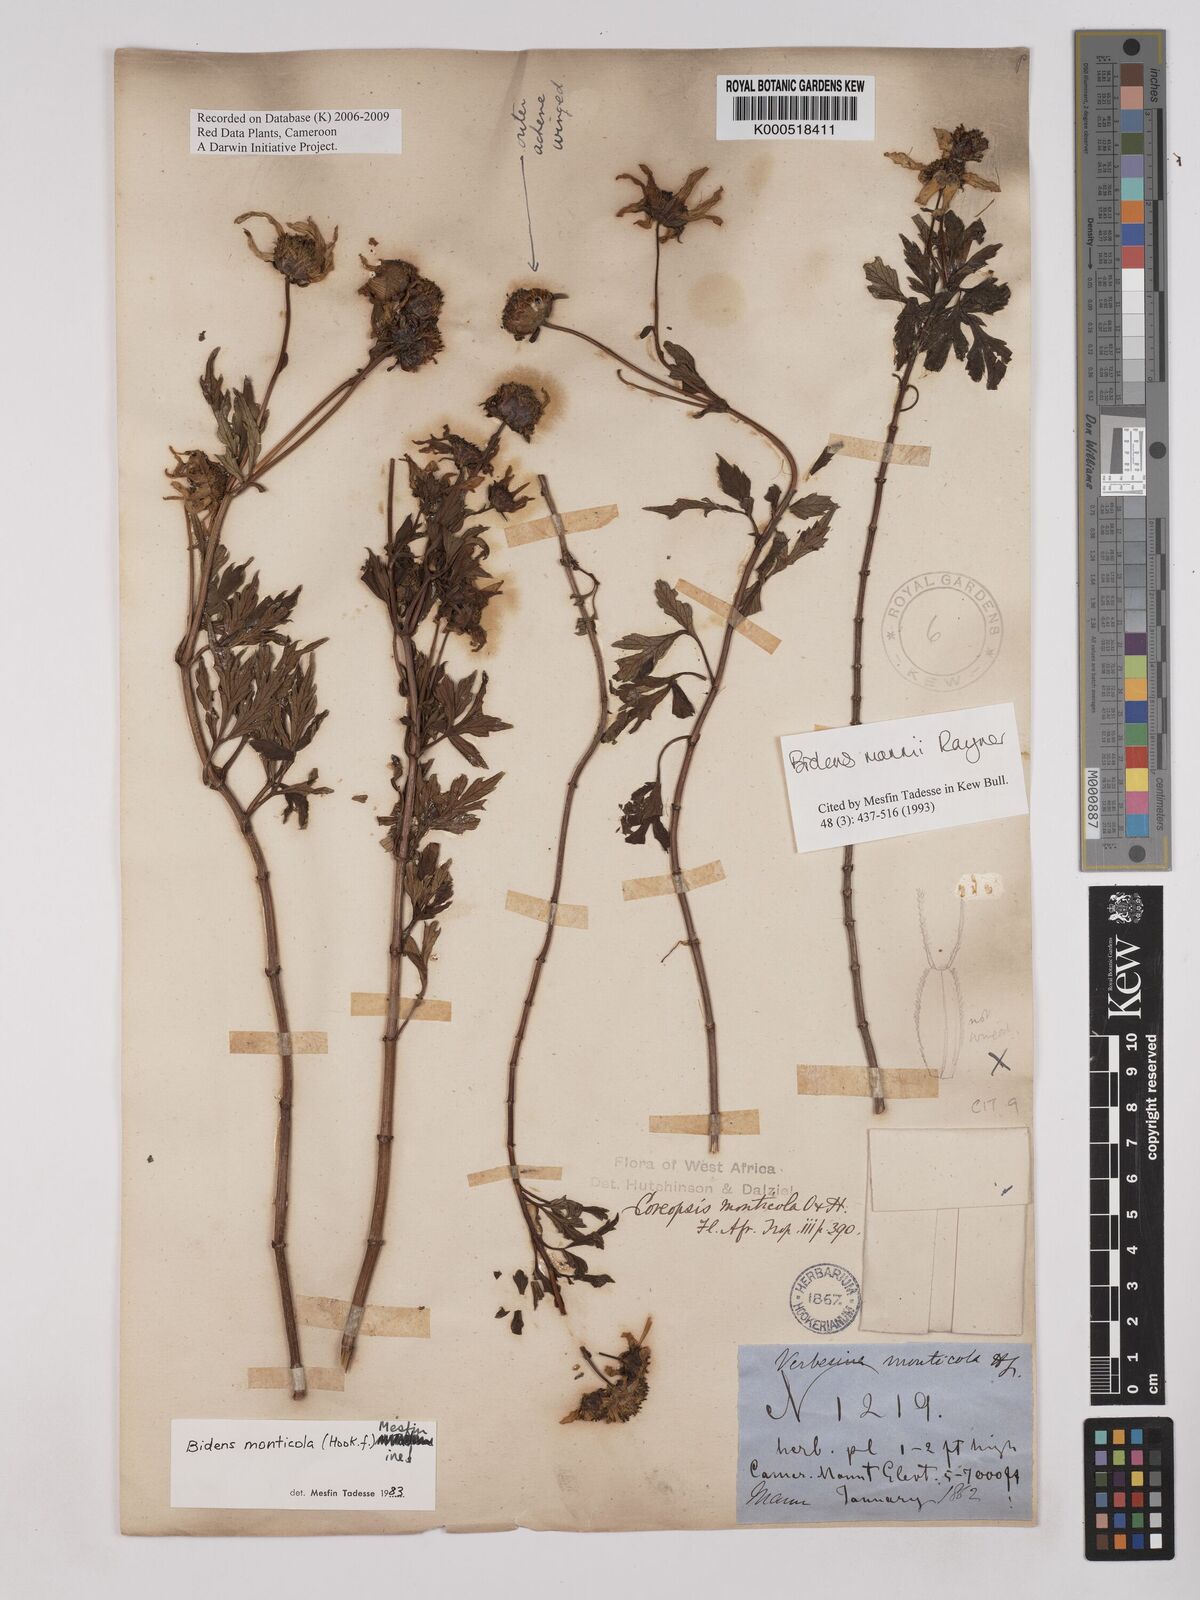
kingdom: Plantae
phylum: Tracheophyta
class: Magnoliopsida
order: Asterales
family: Asteraceae
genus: Bidens
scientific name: Bidens mannii
